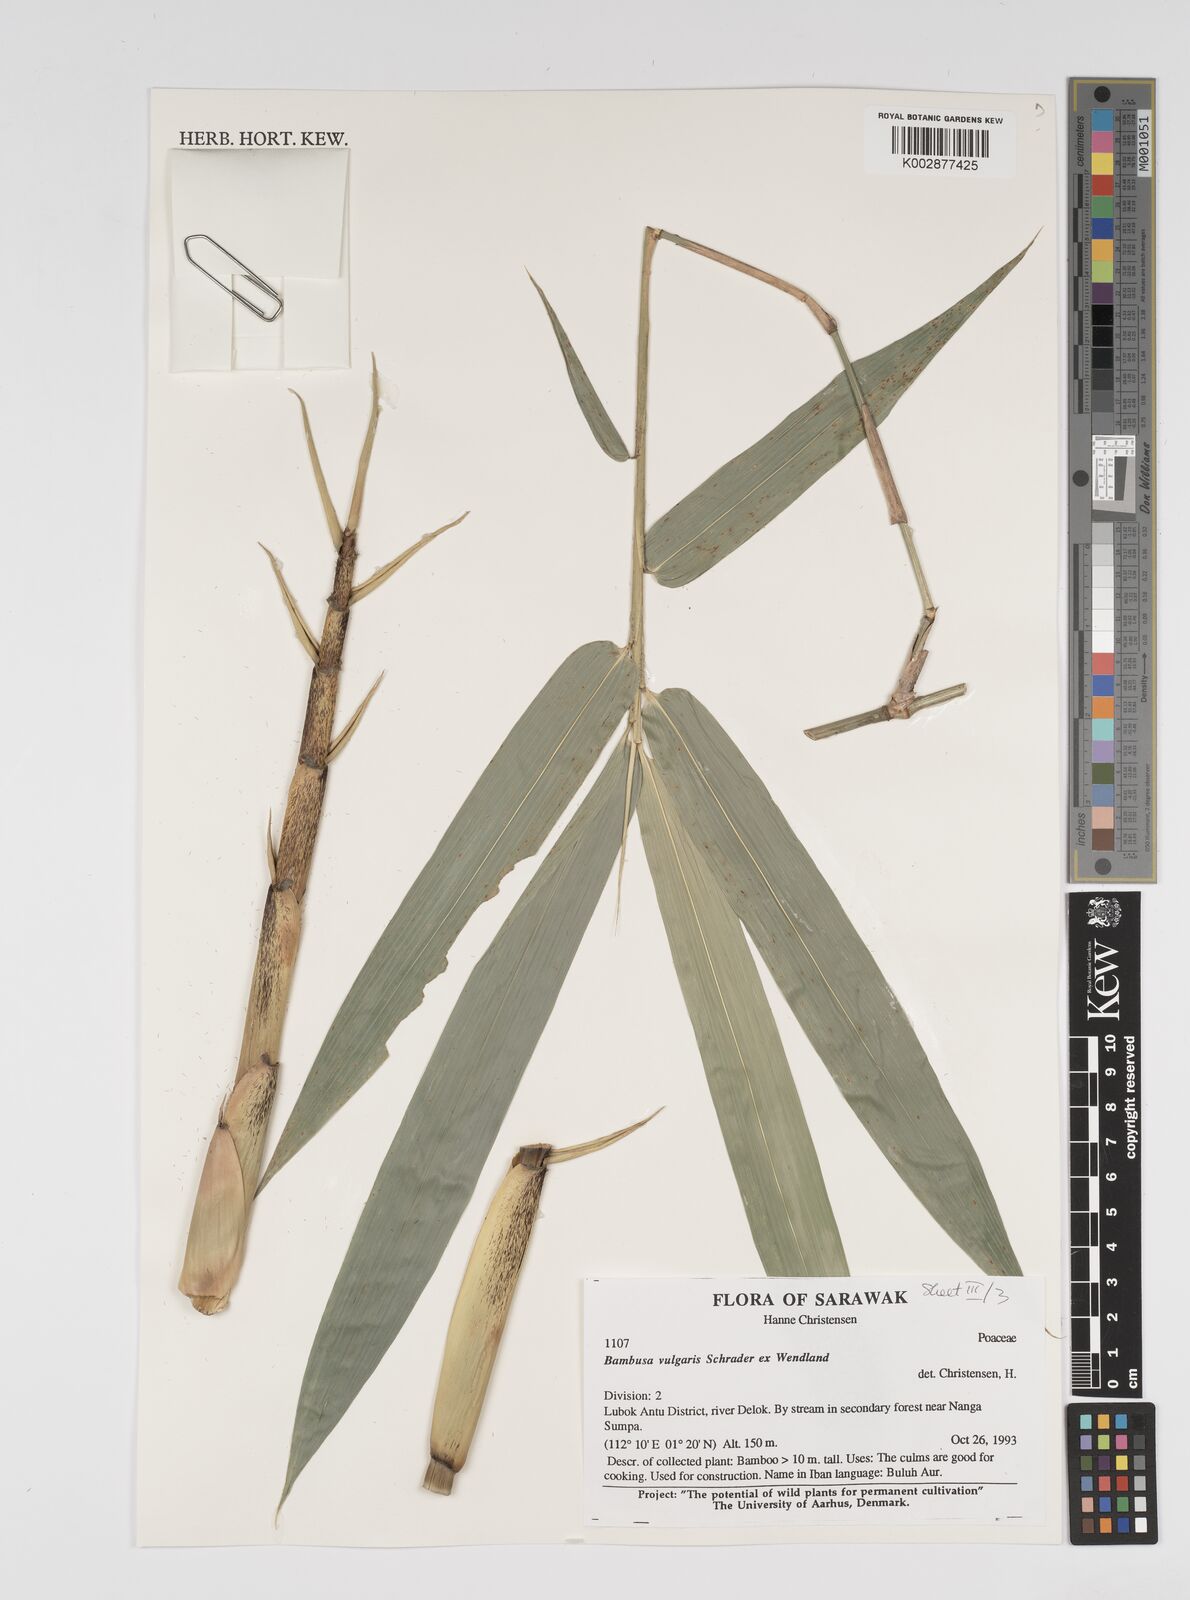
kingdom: Plantae
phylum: Tracheophyta
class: Liliopsida
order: Poales
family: Poaceae
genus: Bambusa
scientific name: Bambusa vulgaris
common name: Common bamboo
